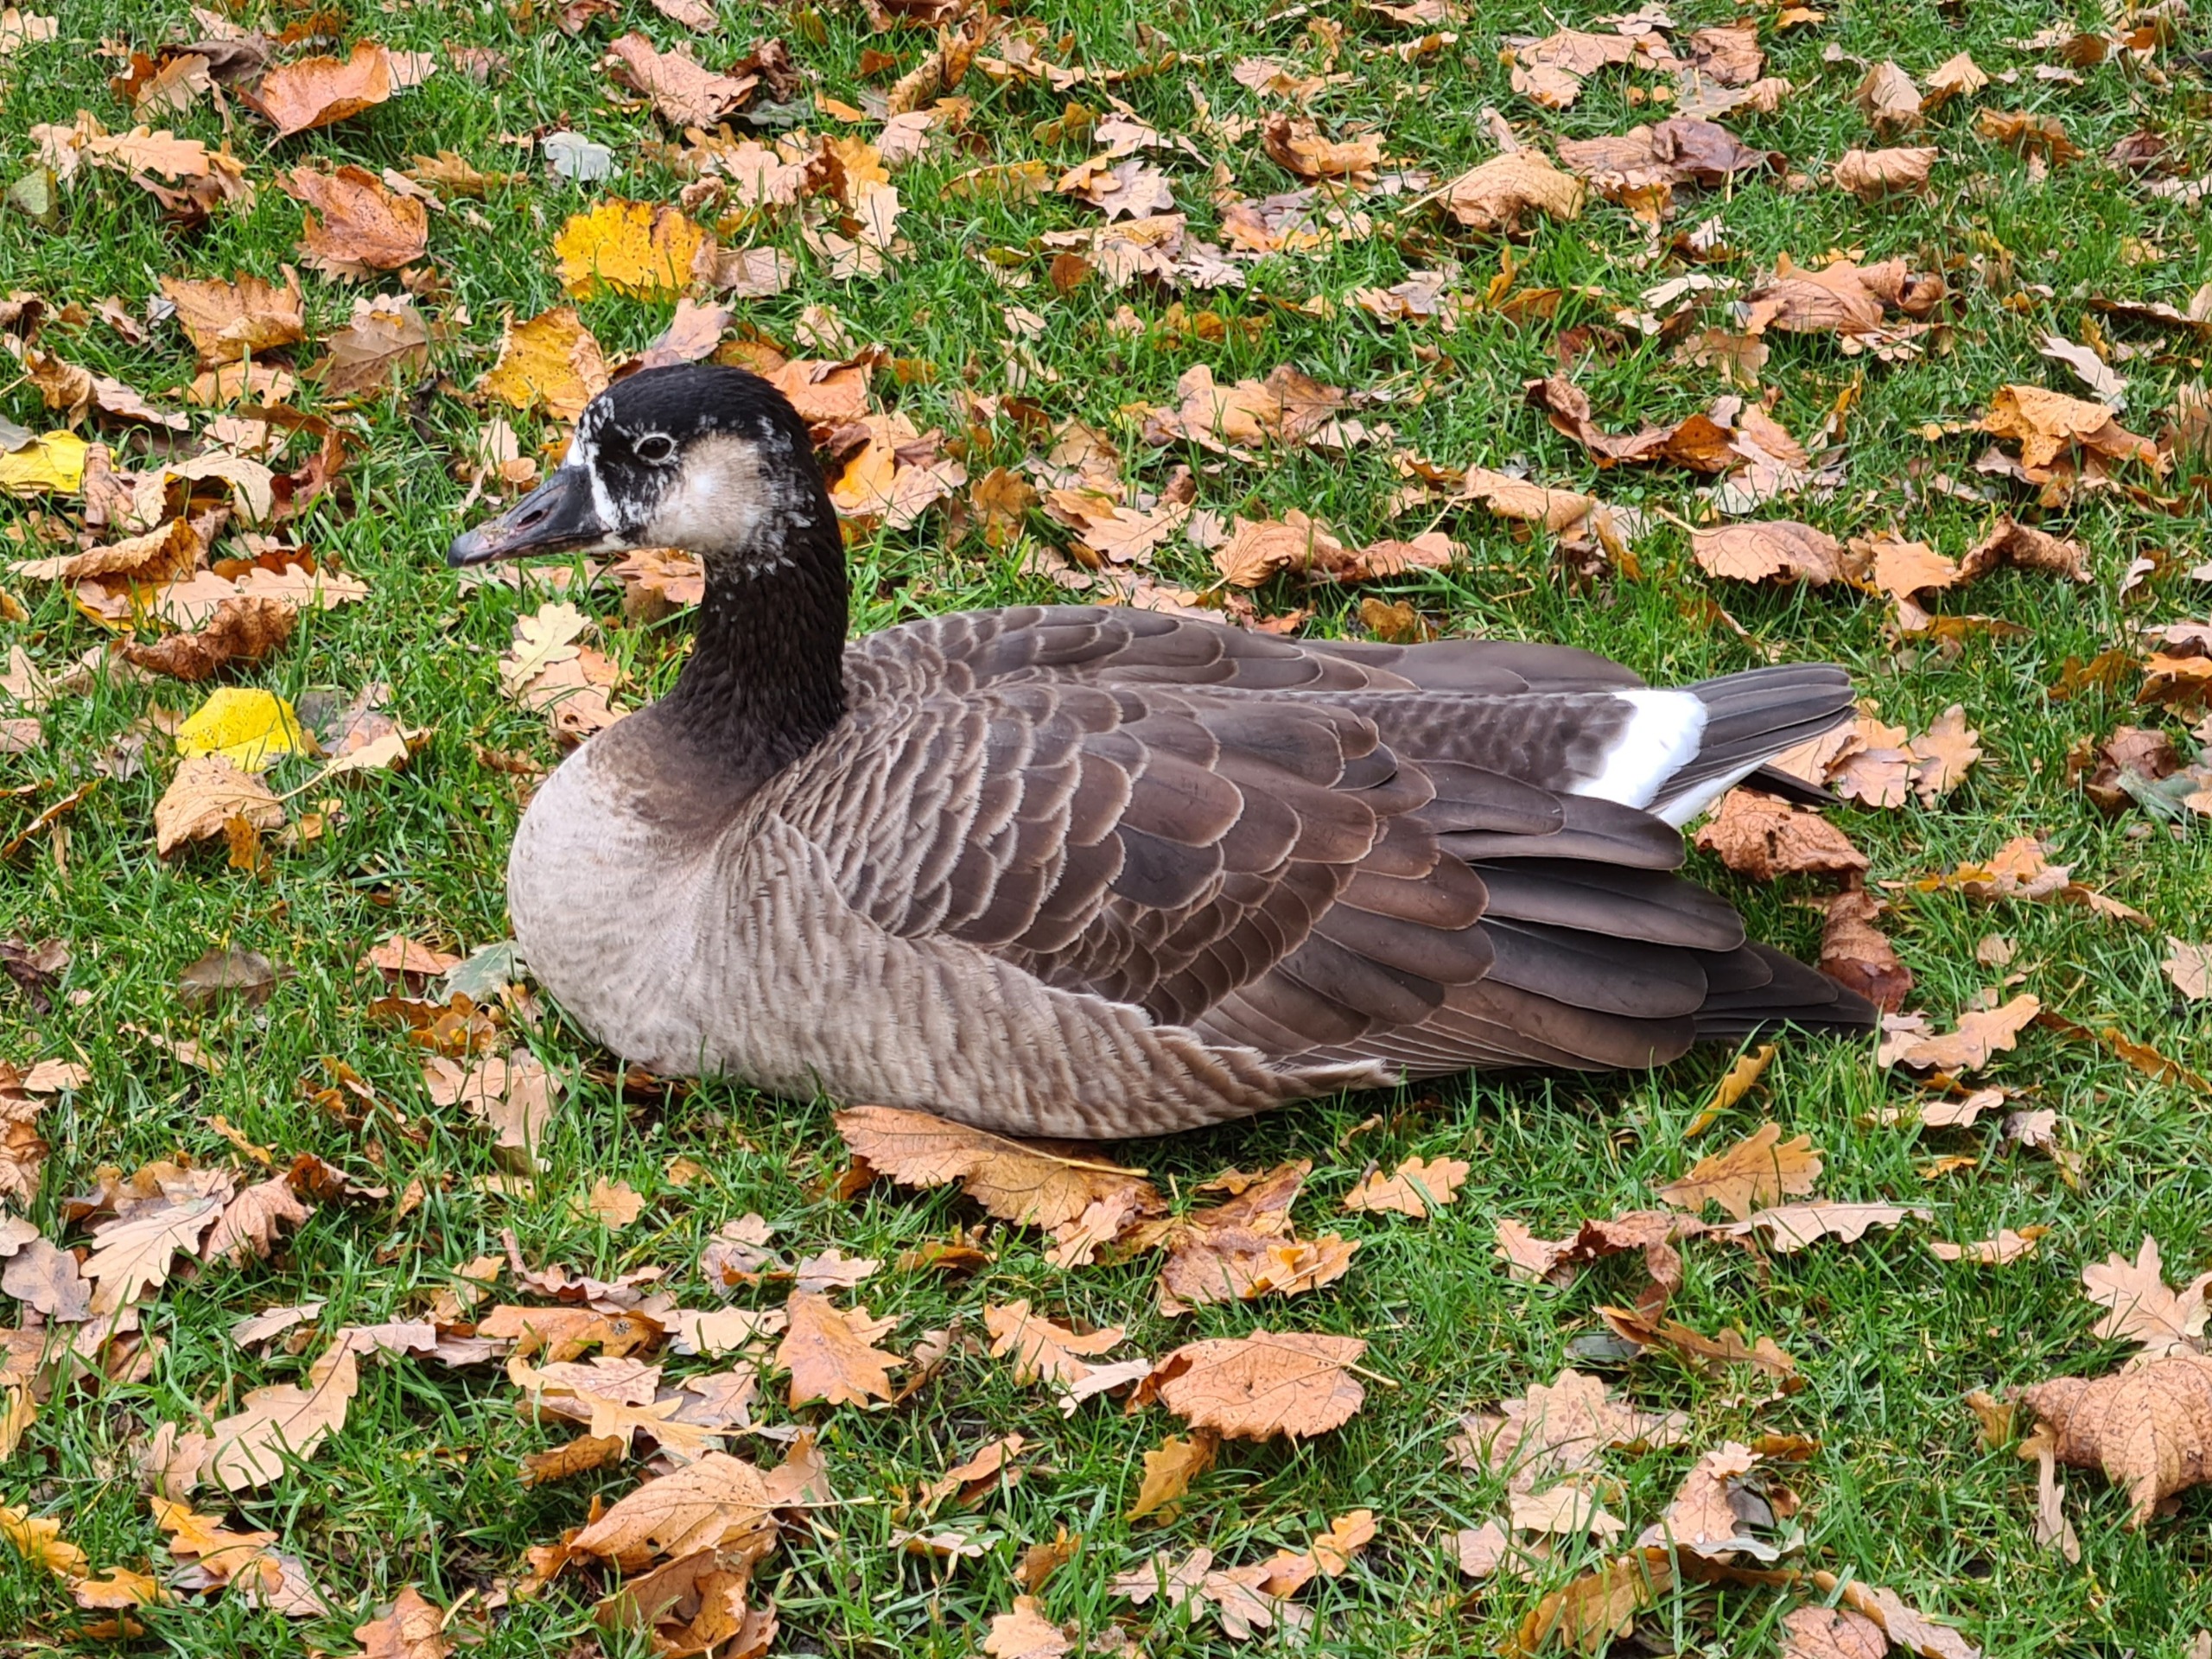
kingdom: Animalia
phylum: Chordata
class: Aves
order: Anseriformes
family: Anatidae
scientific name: Anatidae
